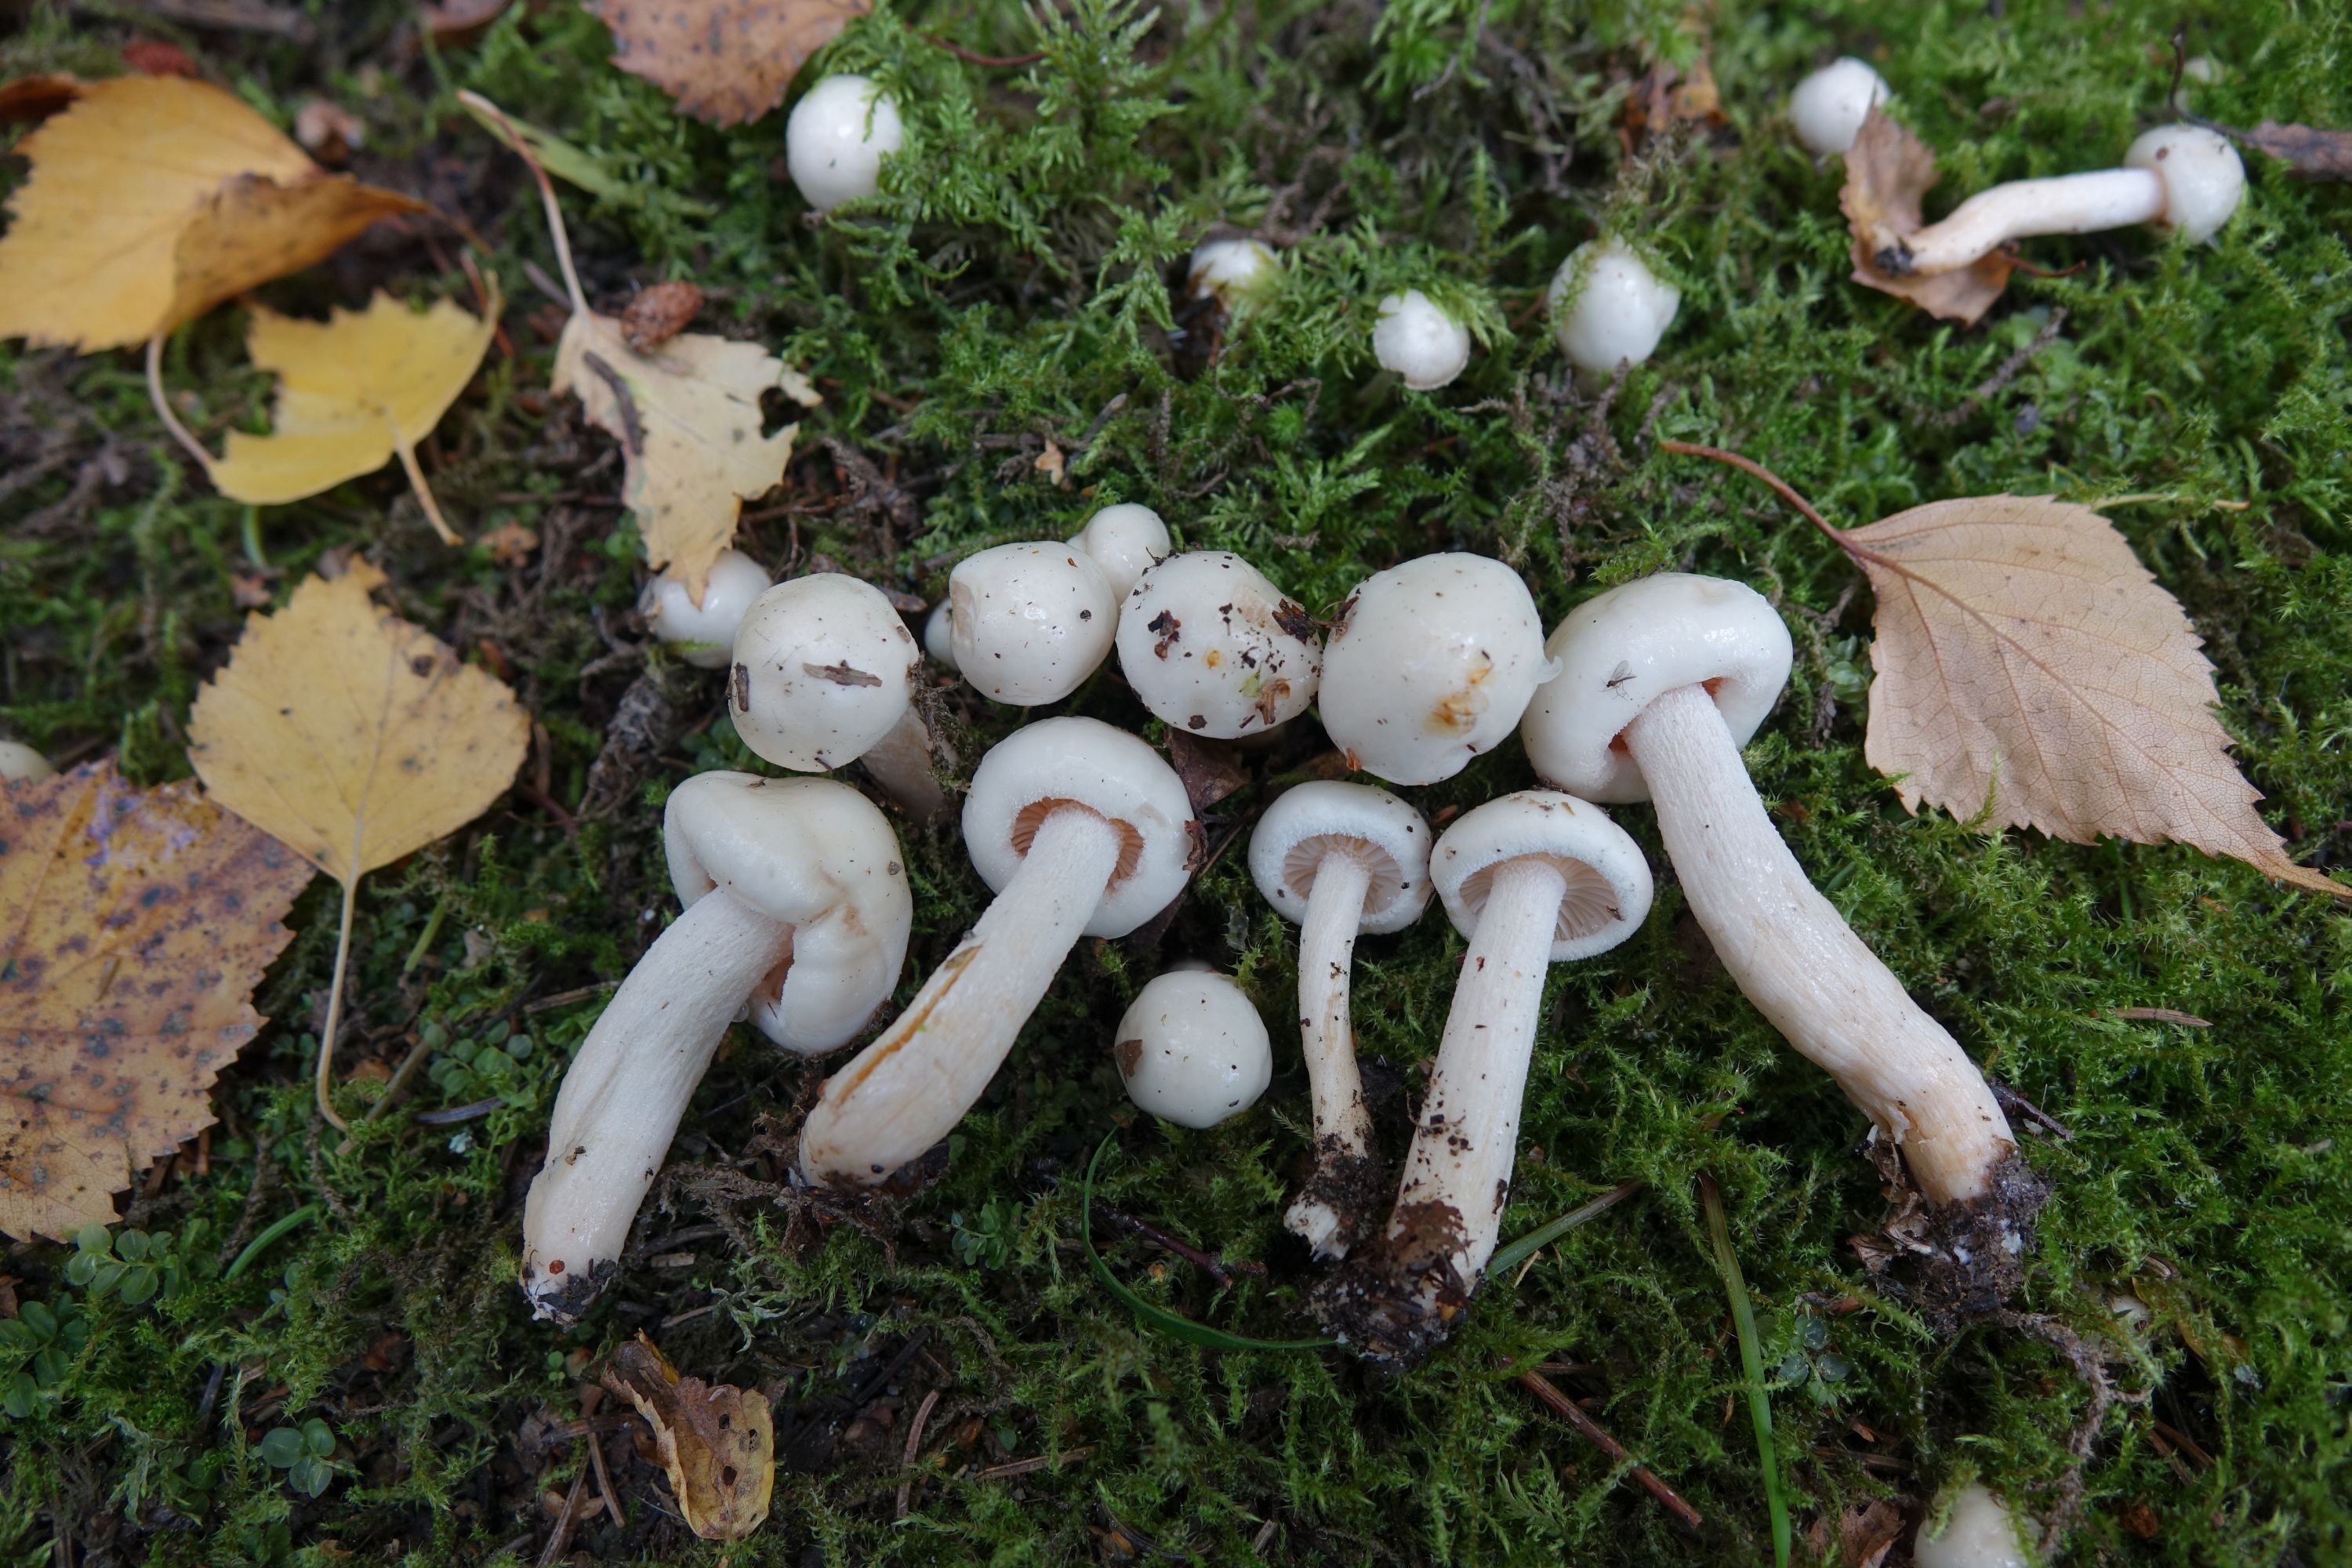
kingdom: Fungi
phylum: Basidiomycota
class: Agaricomycetes
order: Agaricales
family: Hygrophoraceae
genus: Hygrophorus
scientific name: Hygrophorus hedrychii
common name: Sweet woodwax
